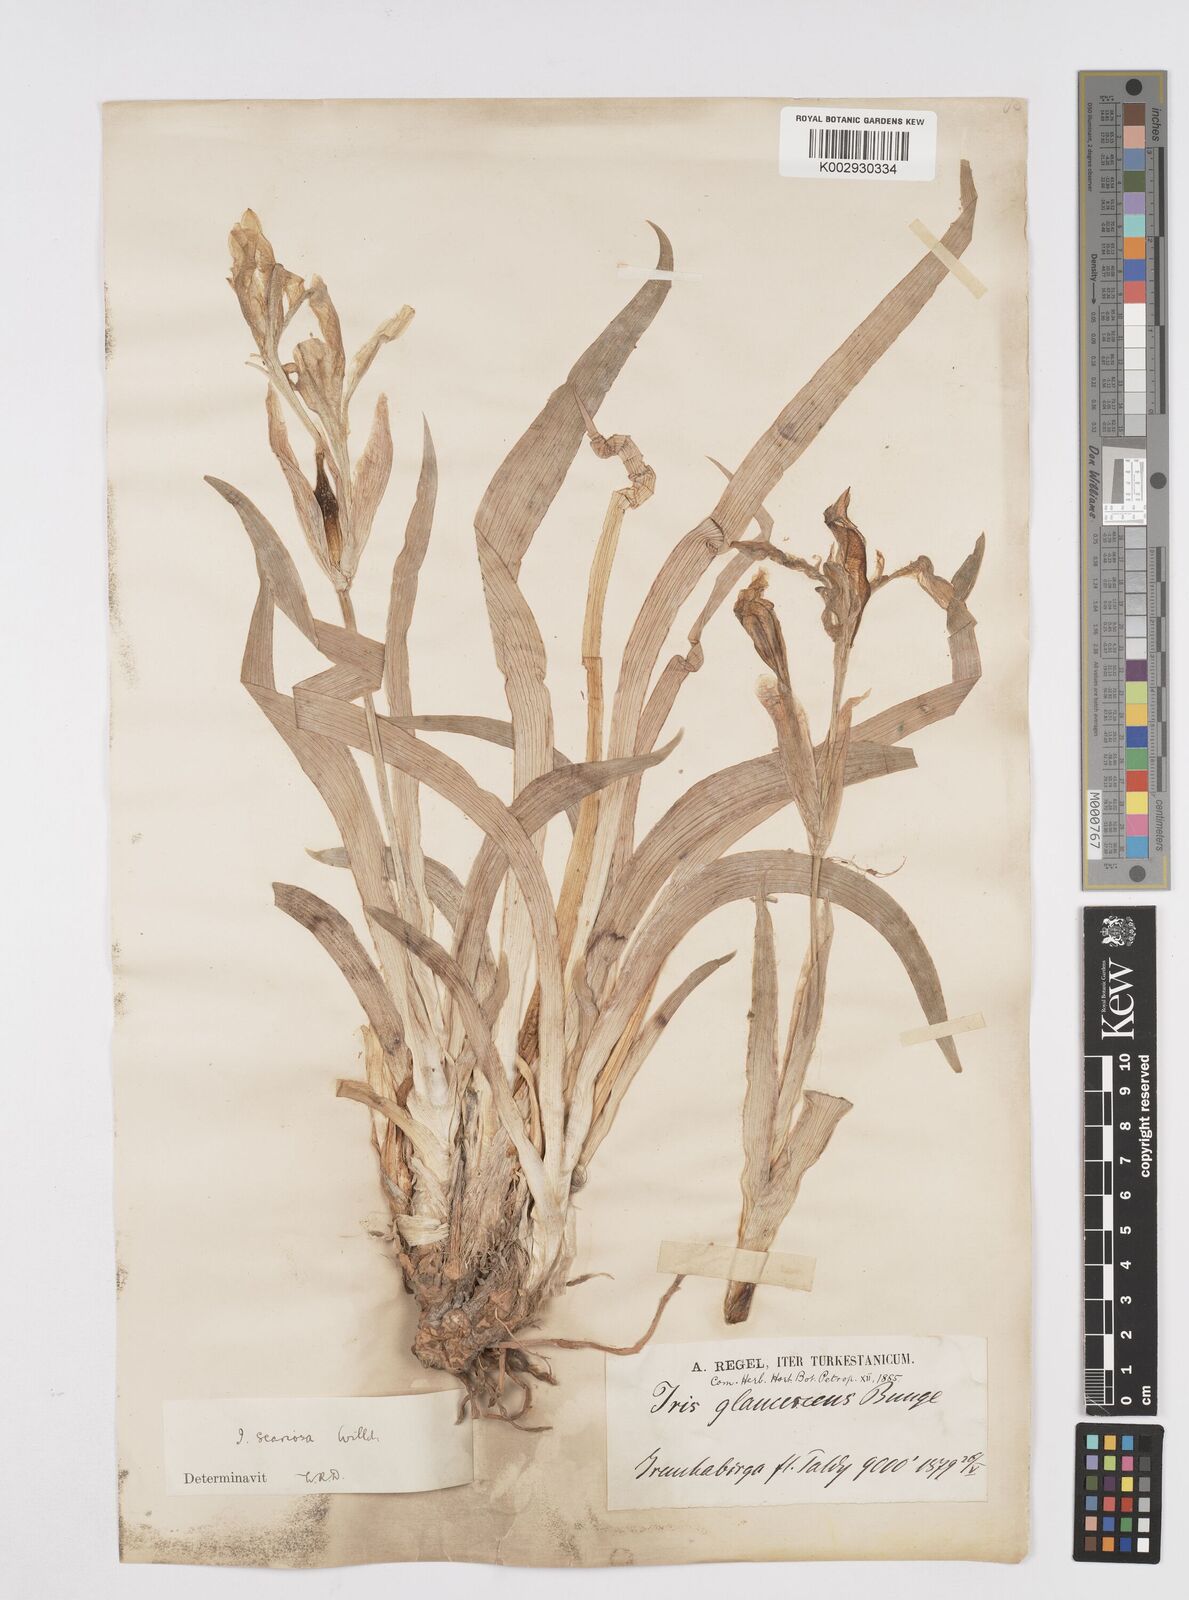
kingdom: Plantae
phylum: Tracheophyta
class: Liliopsida
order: Asparagales
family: Iridaceae
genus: Iris
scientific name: Iris scariosa
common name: Membrane-bract iris
